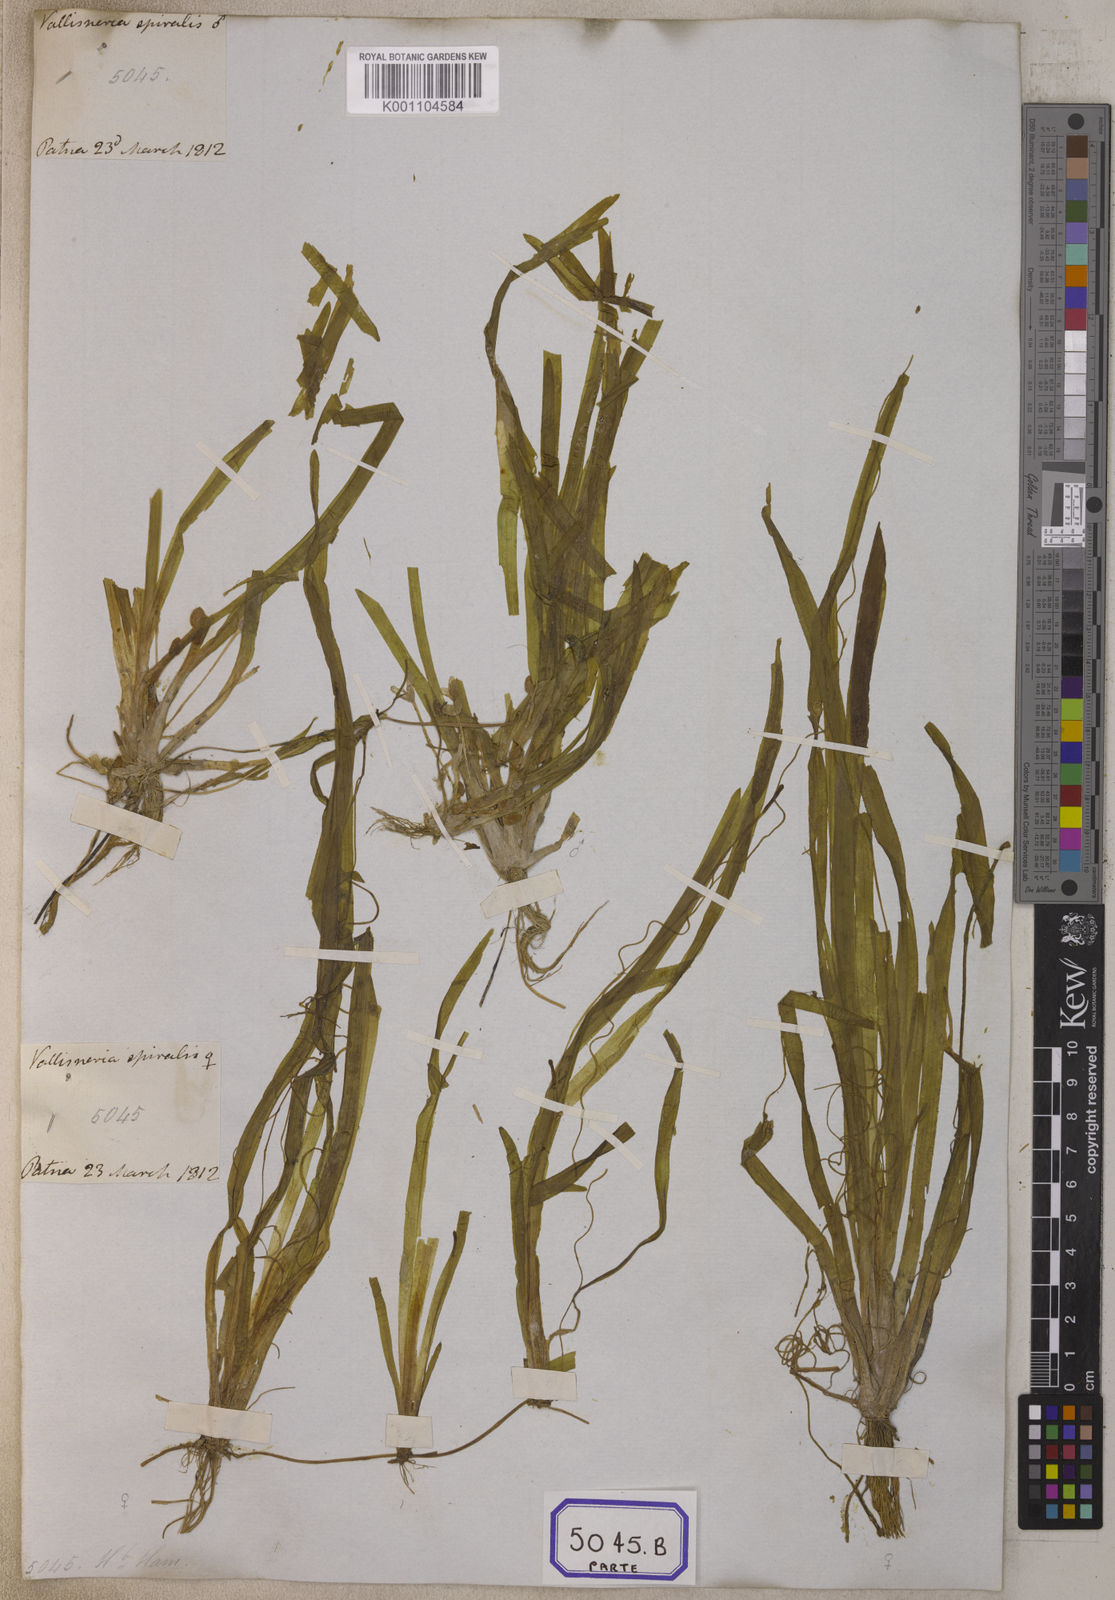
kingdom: Plantae
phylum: Tracheophyta
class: Liliopsida
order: Alismatales
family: Hydrocharitaceae
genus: Vallisneria
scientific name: Vallisneria spiralis
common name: Tapegrass
